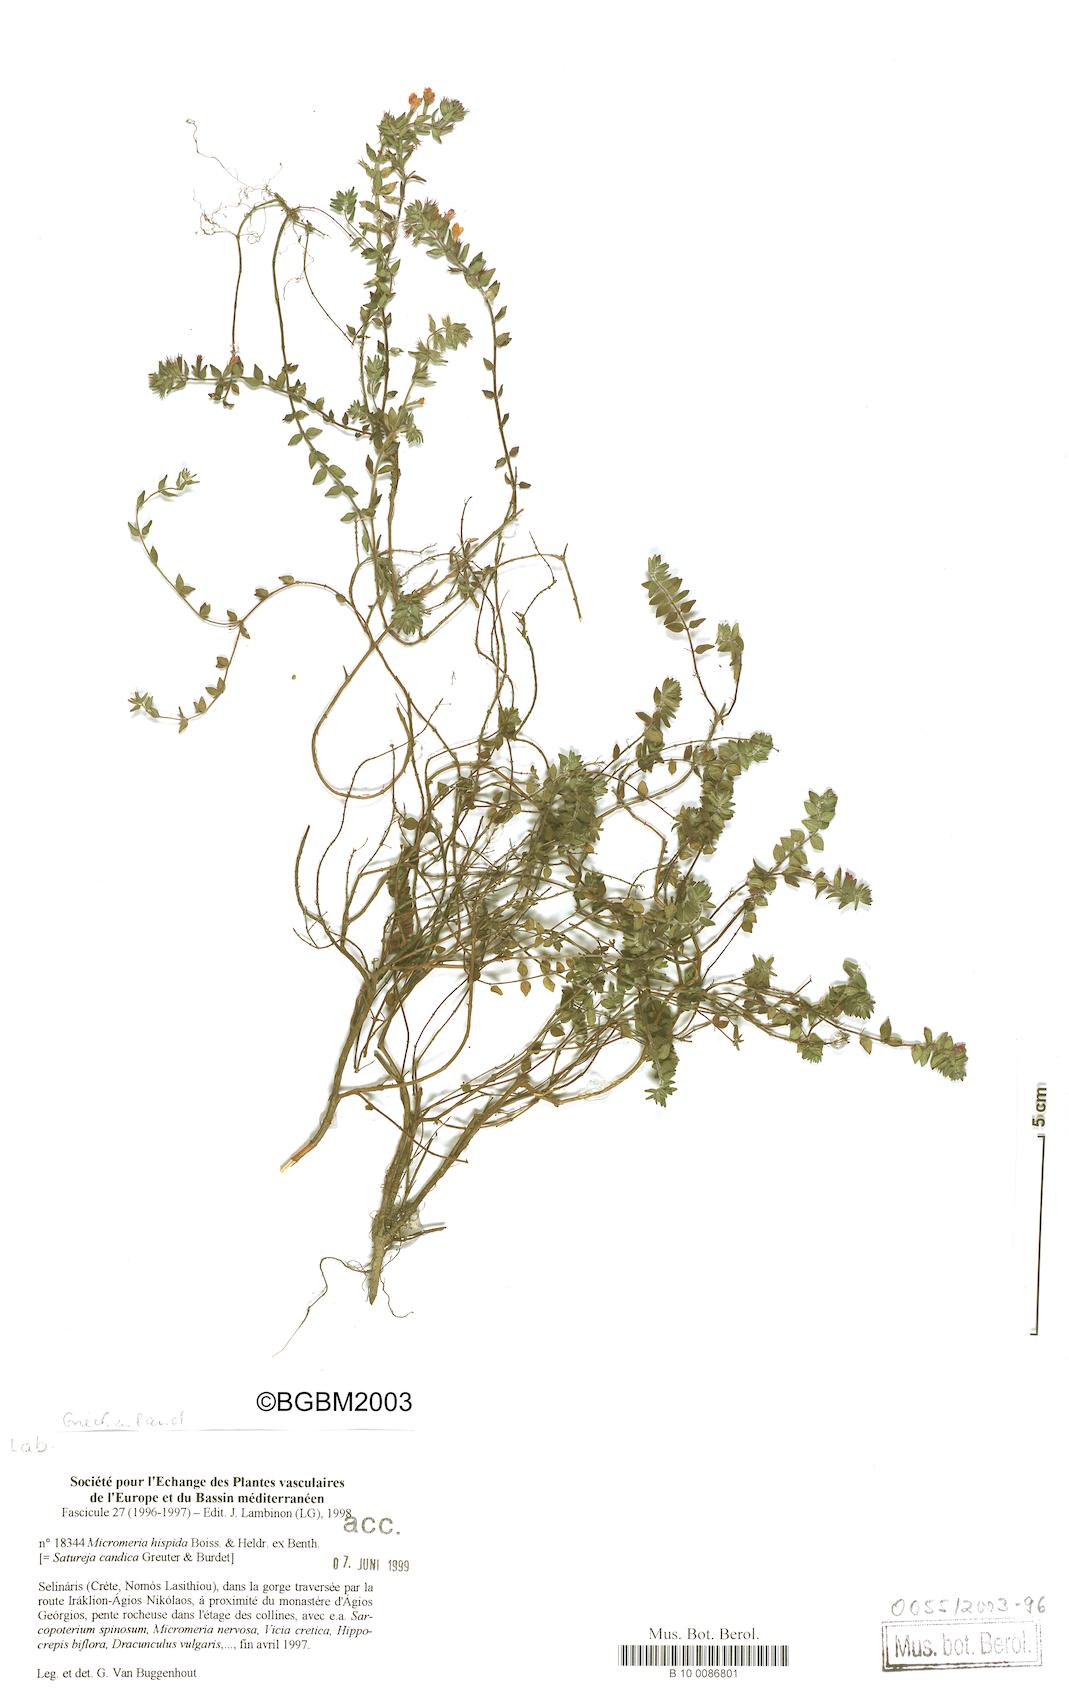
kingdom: Plantae
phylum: Tracheophyta
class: Magnoliopsida
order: Lamiales
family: Lamiaceae
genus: Micromeria
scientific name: Micromeria hispida
